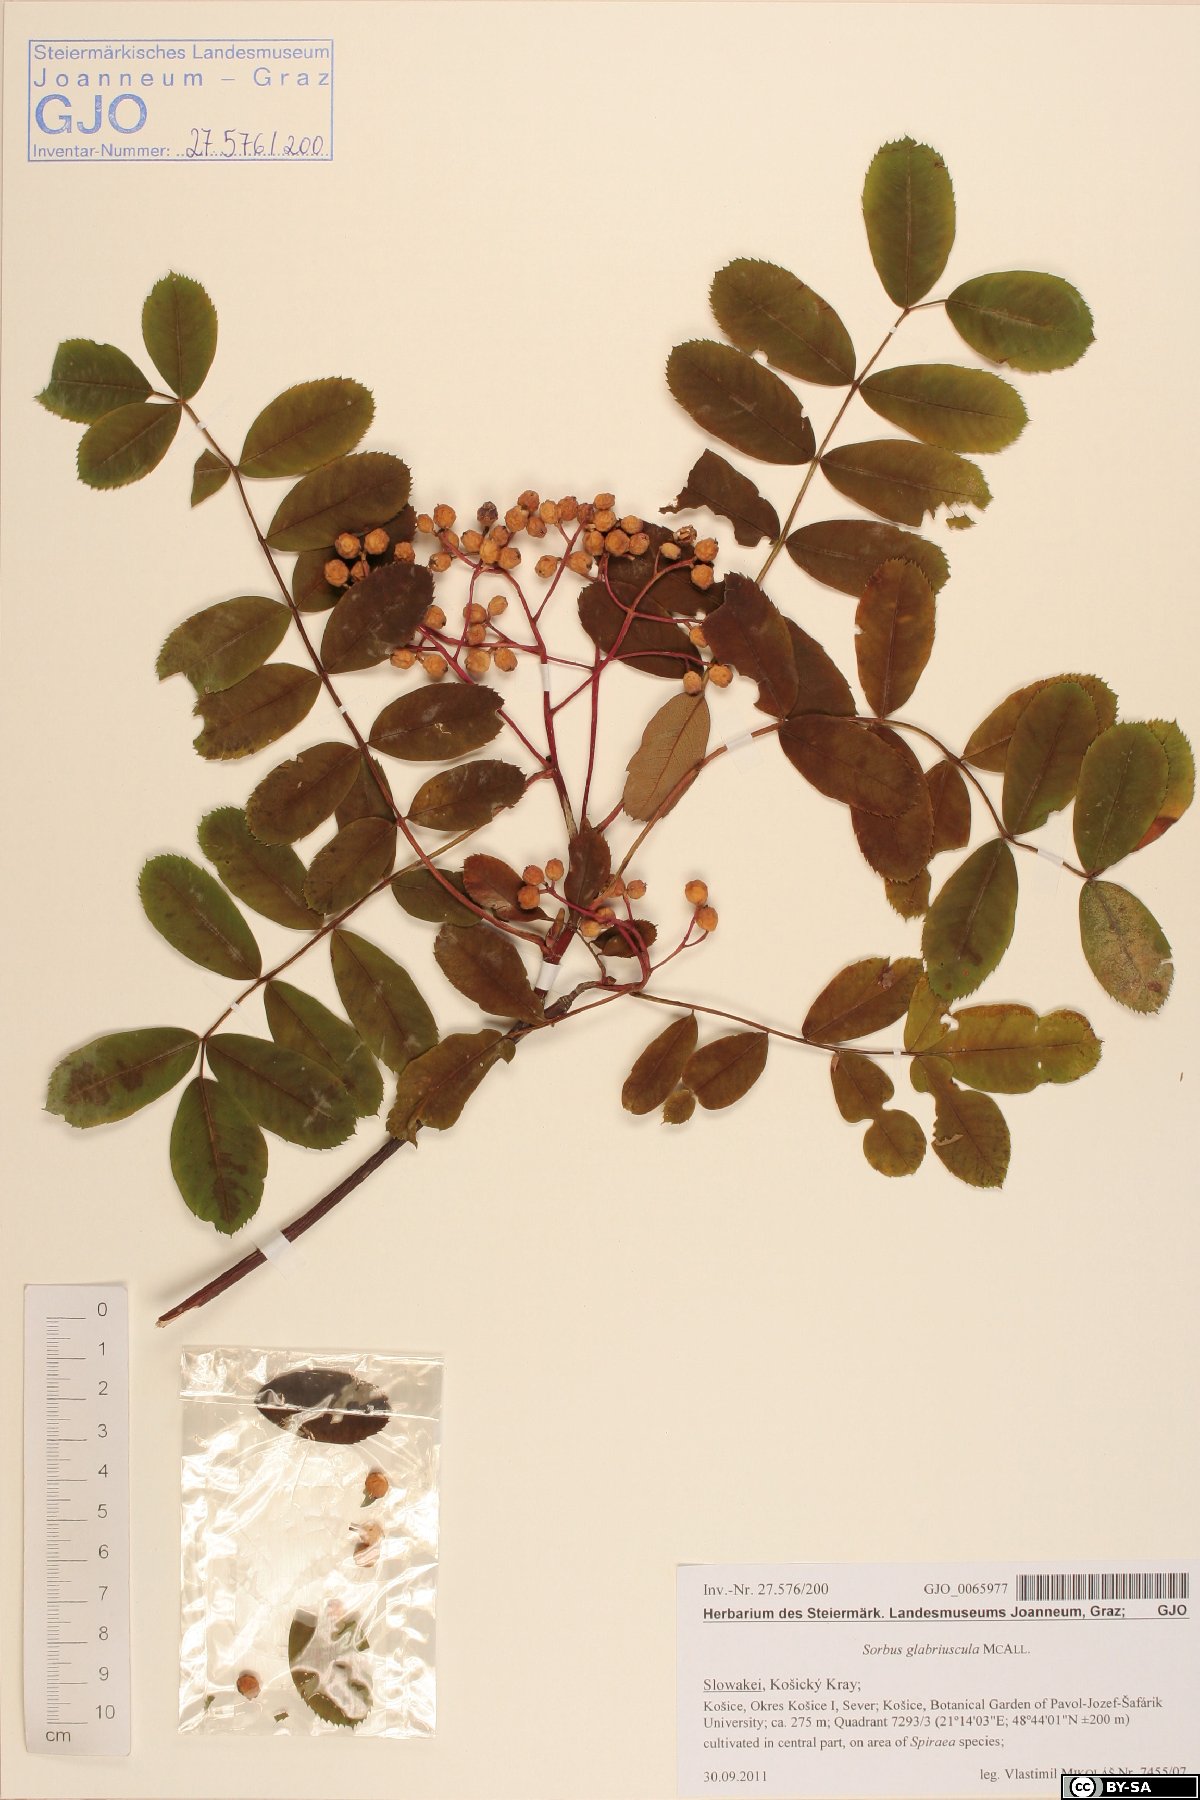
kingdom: Plantae
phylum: Tracheophyta
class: Magnoliopsida
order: Rosales
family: Rosaceae
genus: Sorbus
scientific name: Sorbus glabriuscula
